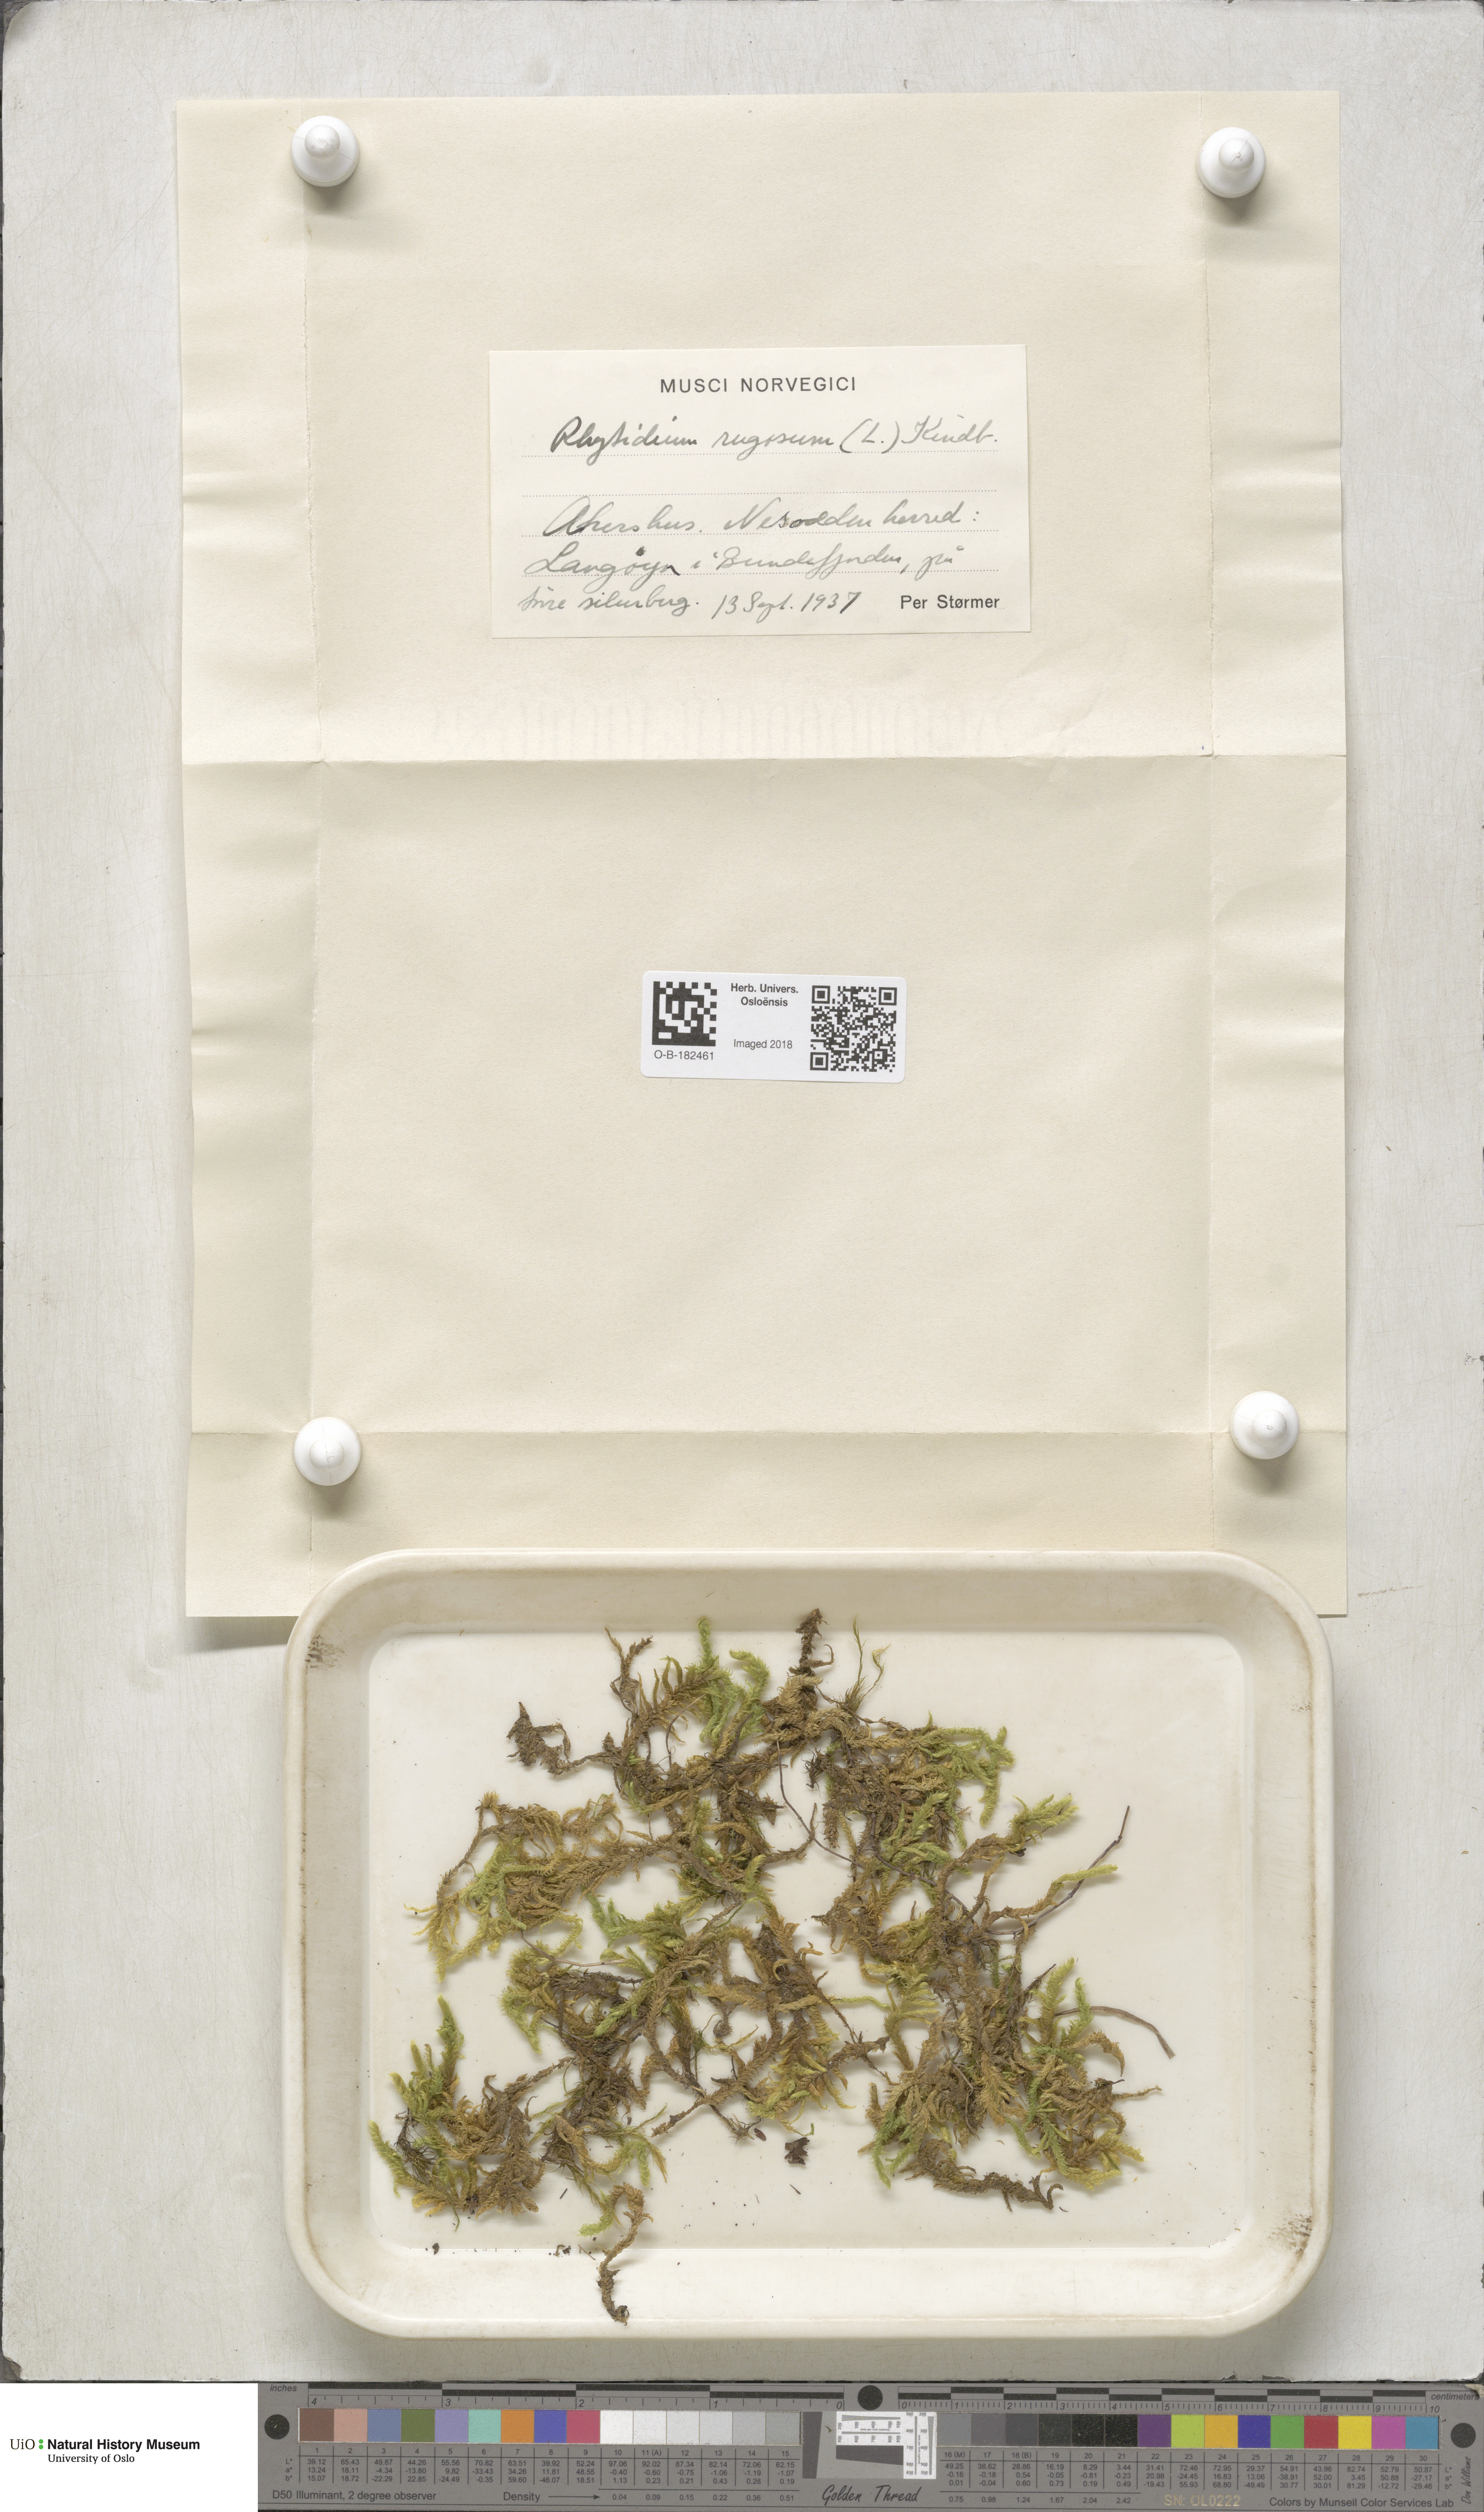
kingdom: Plantae
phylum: Bryophyta
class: Bryopsida
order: Hypnales
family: Rhytidiaceae
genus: Rhytidium
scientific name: Rhytidium rugosum
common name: Wrinkle-leaved moss
